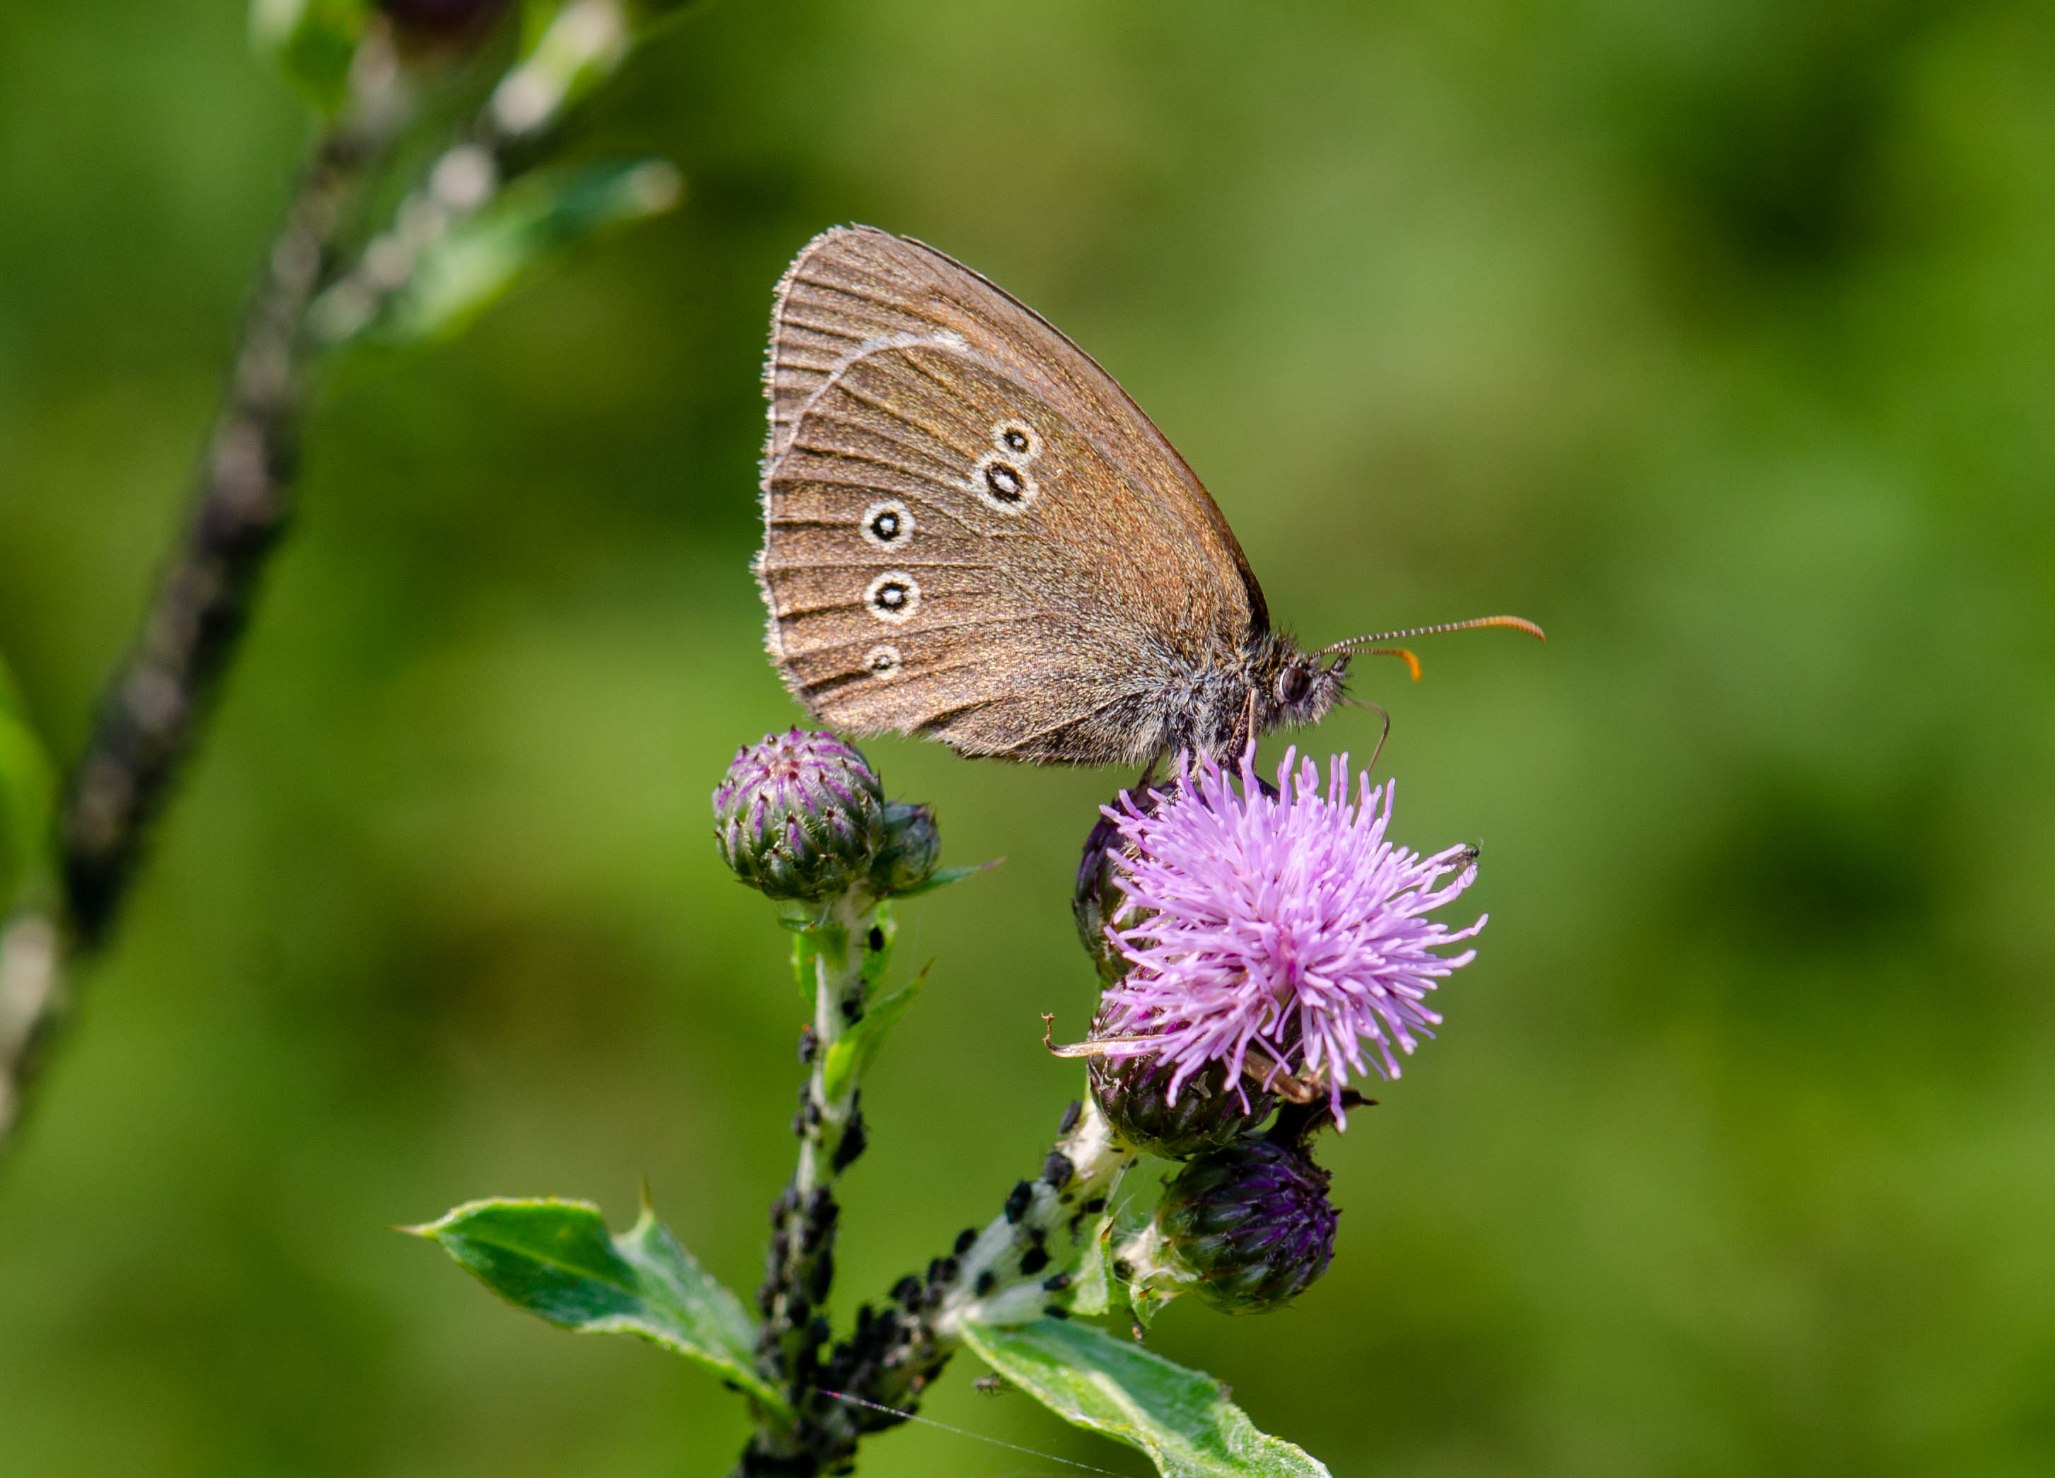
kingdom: Animalia
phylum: Arthropoda
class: Insecta
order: Lepidoptera
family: Nymphalidae
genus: Aphantopus
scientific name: Aphantopus hyperantus
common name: Engrandøje
